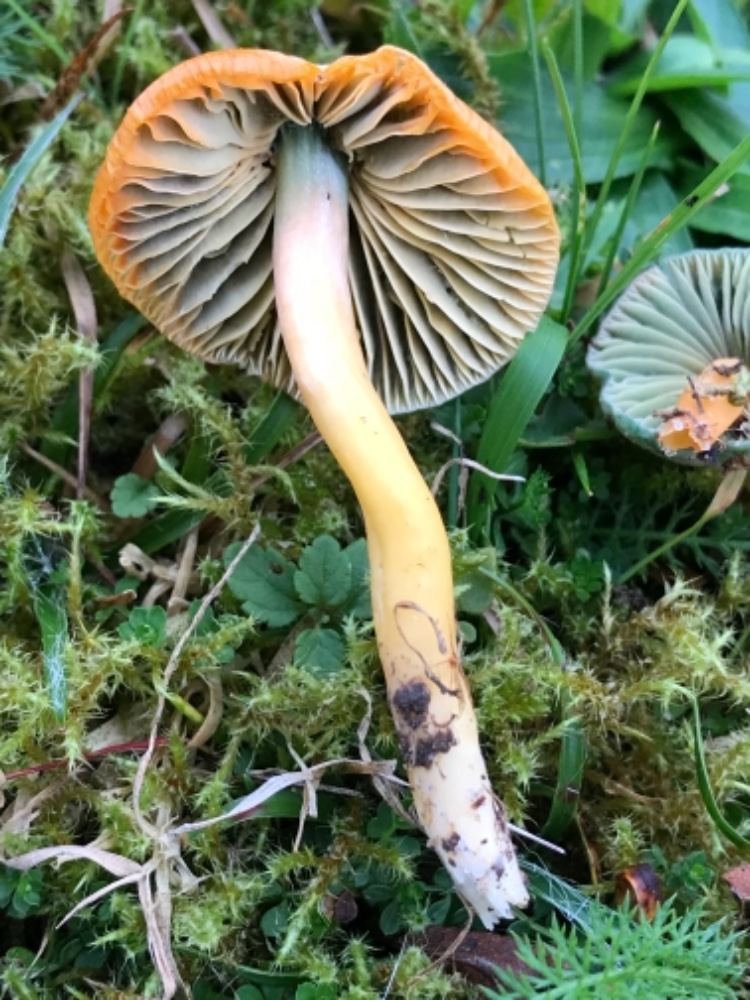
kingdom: Fungi
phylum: Basidiomycota
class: Agaricomycetes
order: Agaricales
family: Hygrophoraceae
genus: Gliophorus
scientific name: Gliophorus psittacinus
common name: papegøje-vokshat
